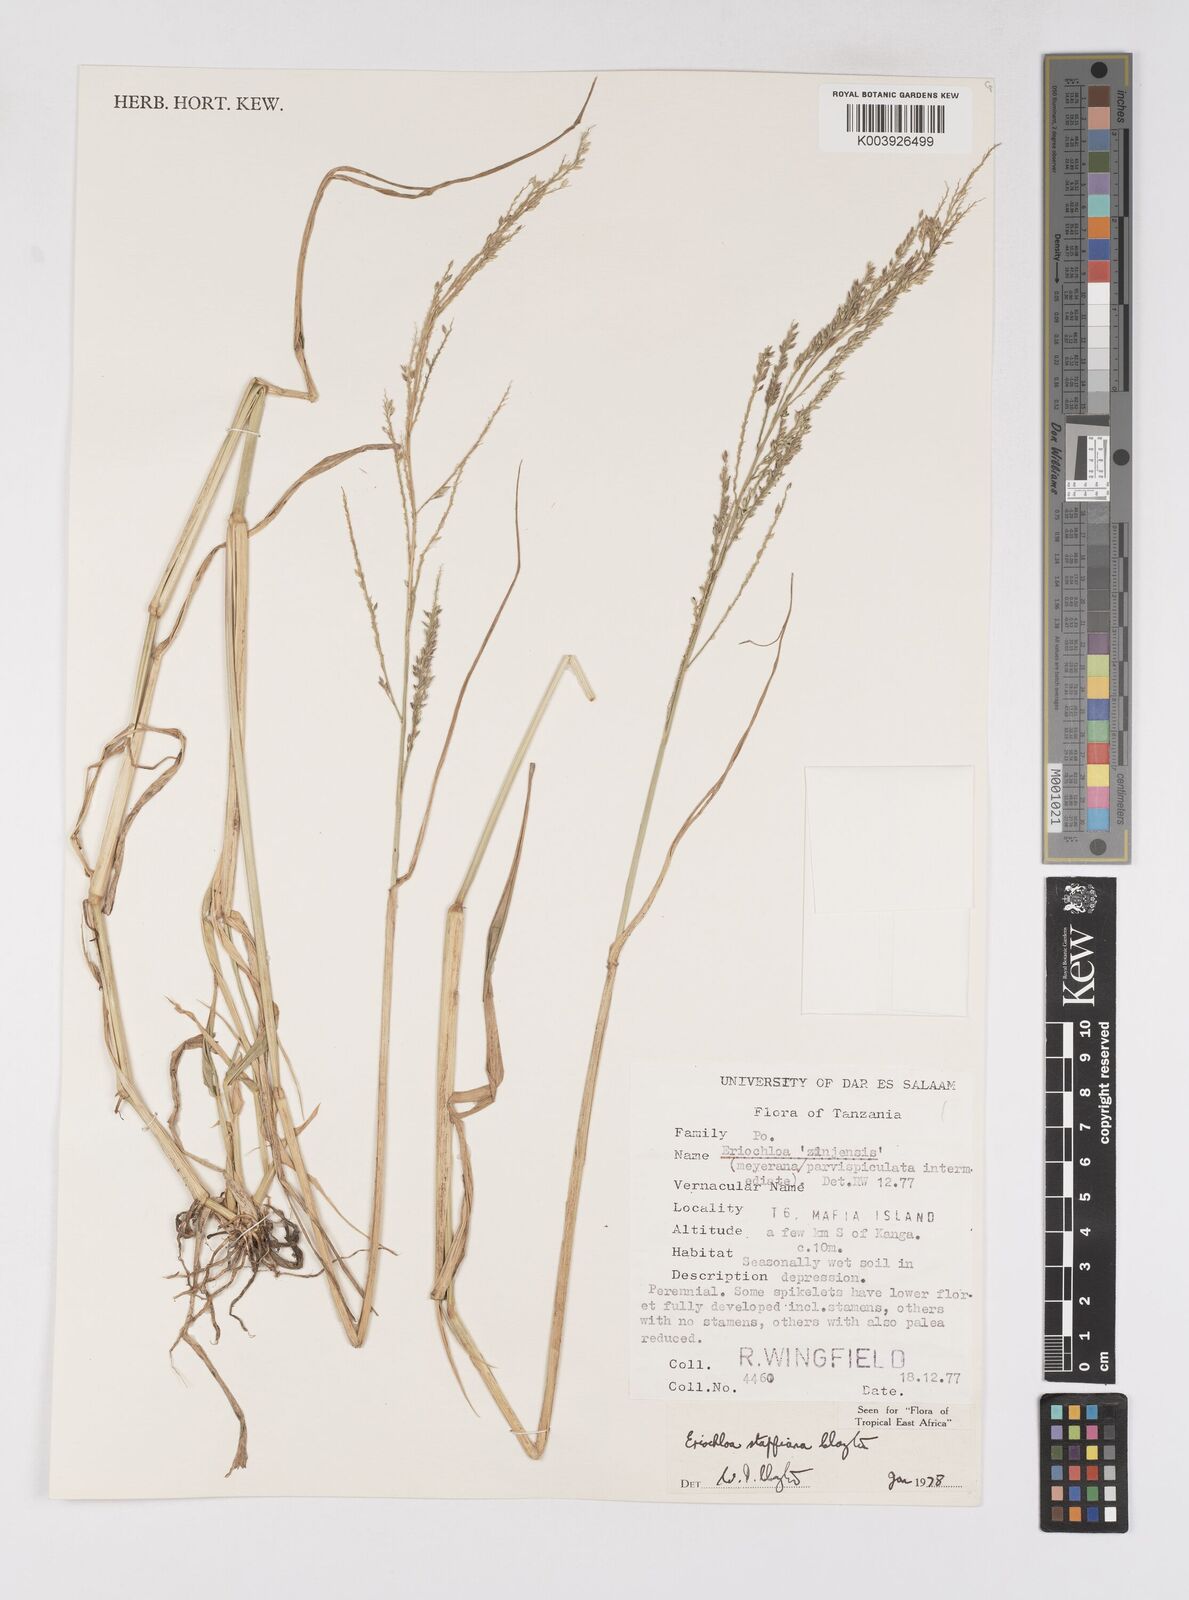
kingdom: Plantae
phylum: Tracheophyta
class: Liliopsida
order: Poales
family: Poaceae
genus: Eriochloa
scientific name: Eriochloa stapfiana
